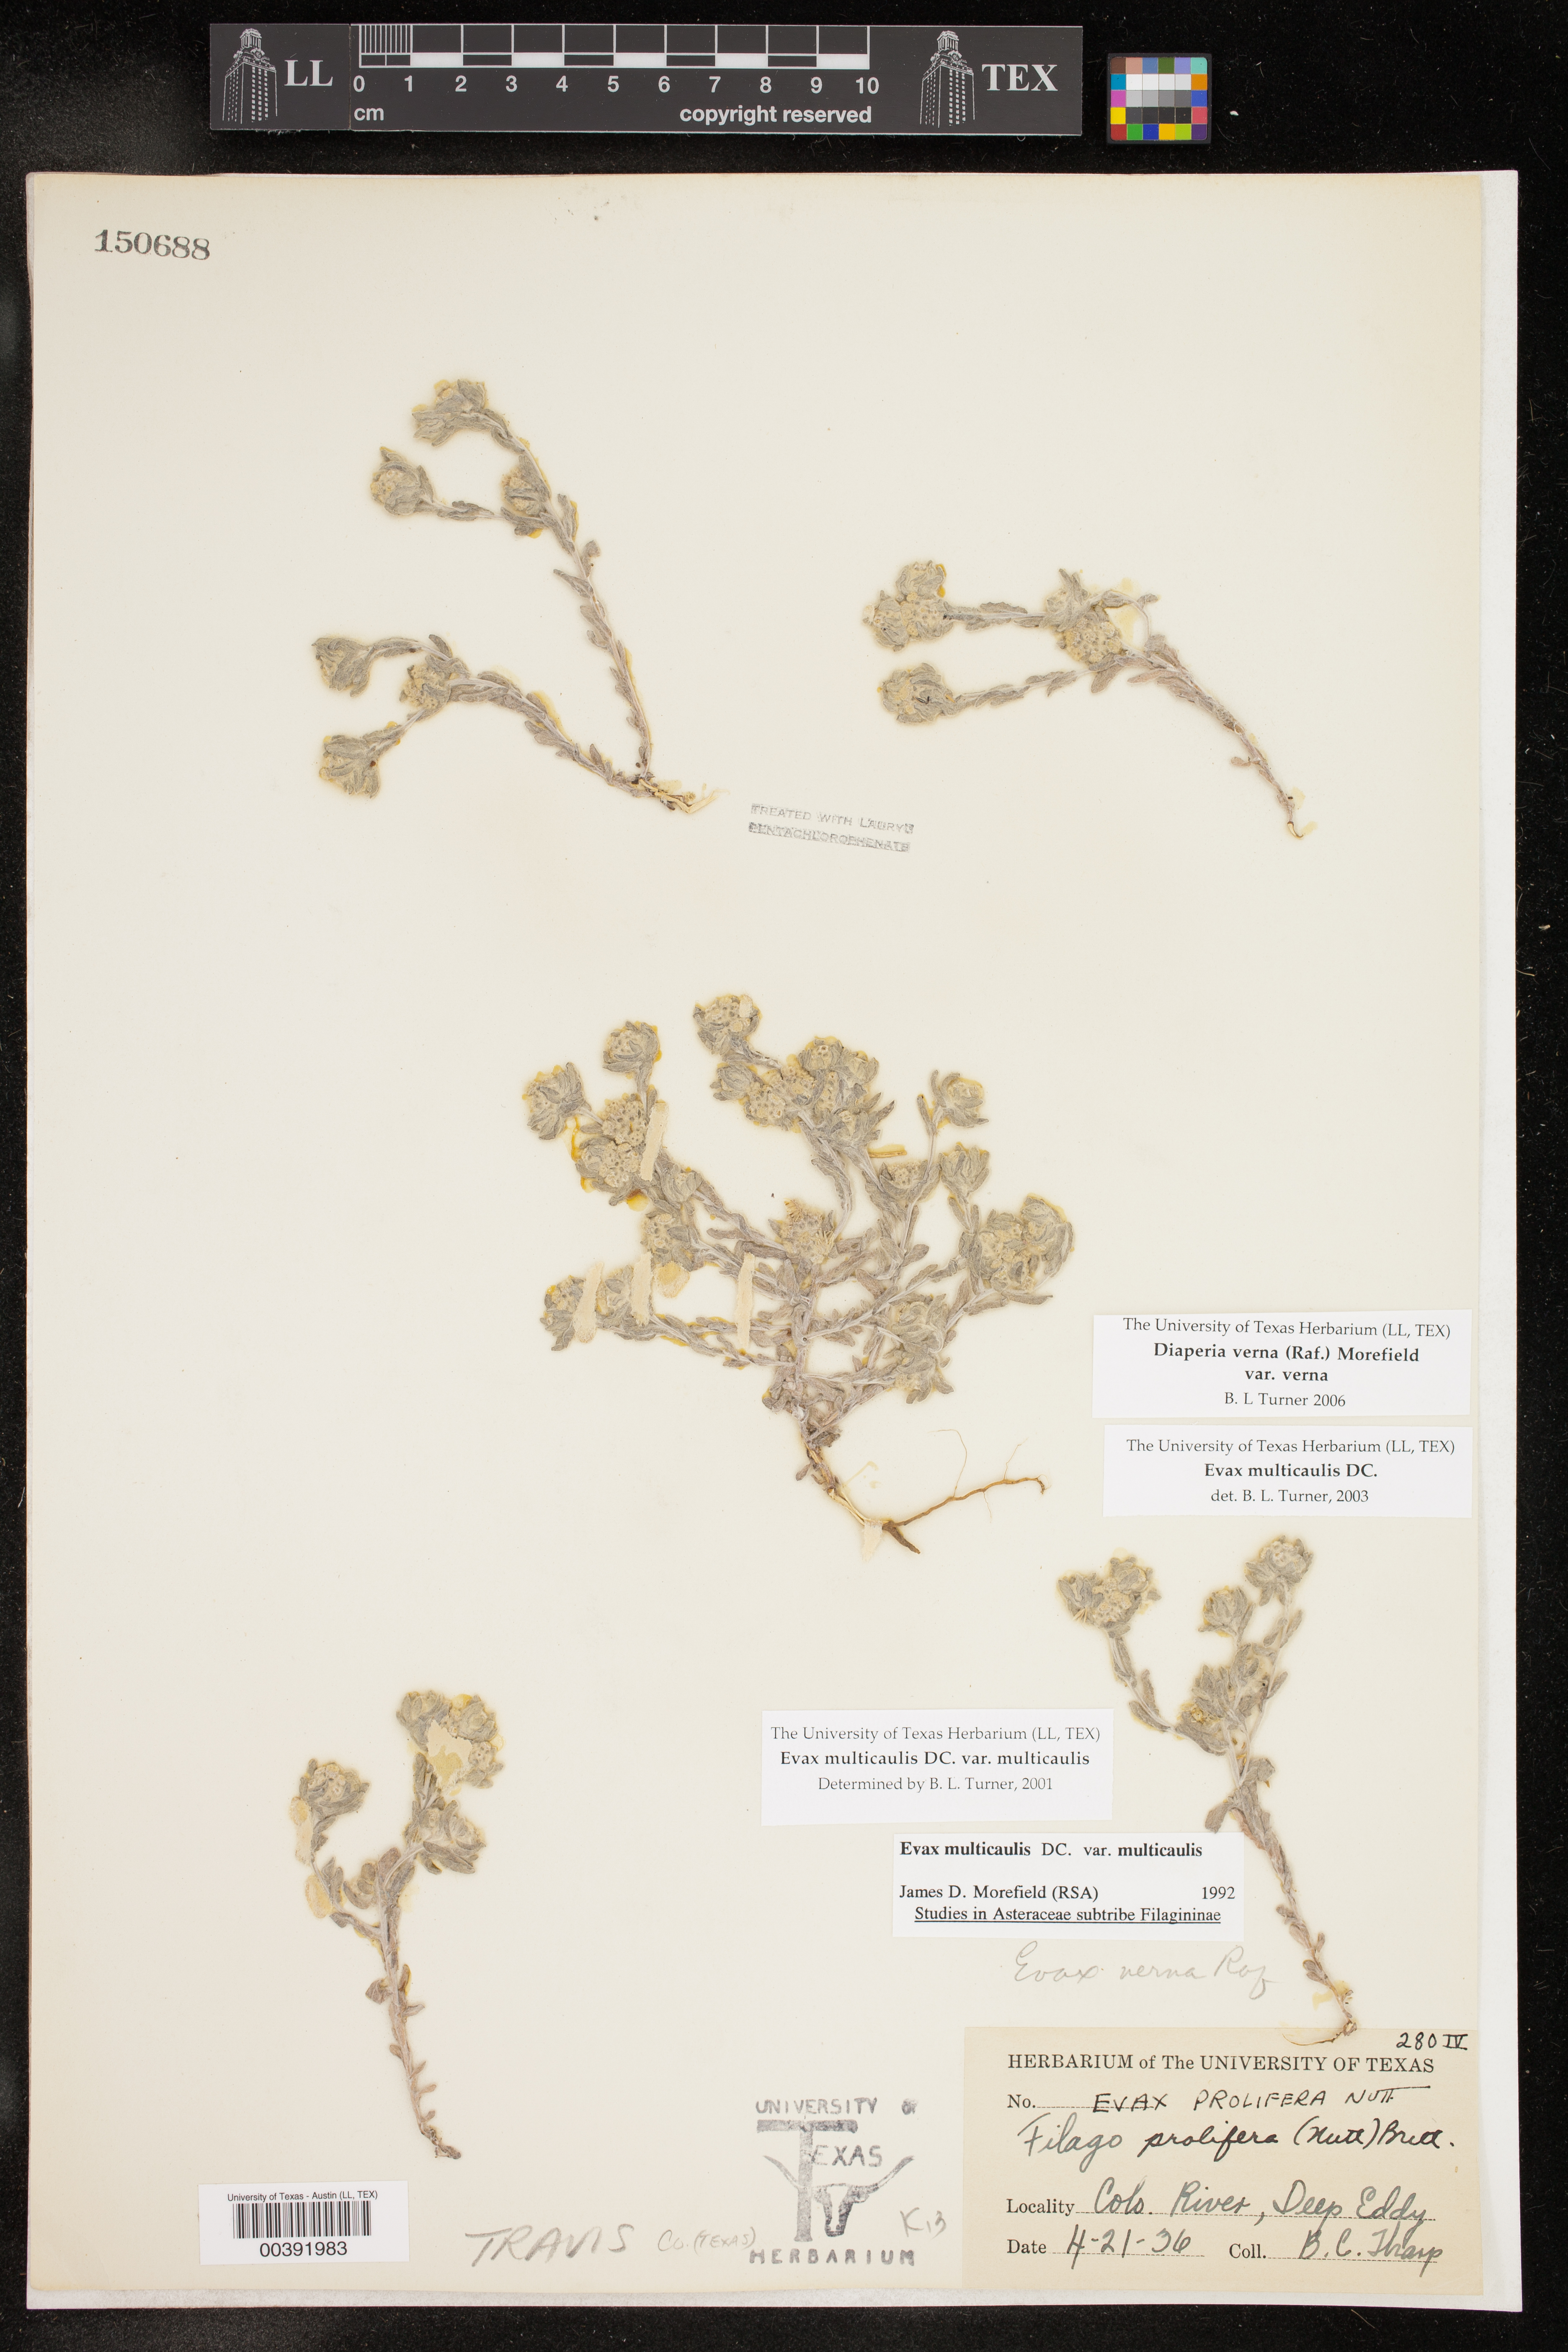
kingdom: Plantae
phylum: Tracheophyta
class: Magnoliopsida
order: Asterales
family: Asteraceae
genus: Diaperia
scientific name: Diaperia verna
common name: Many-stem rabbit-tobacco
